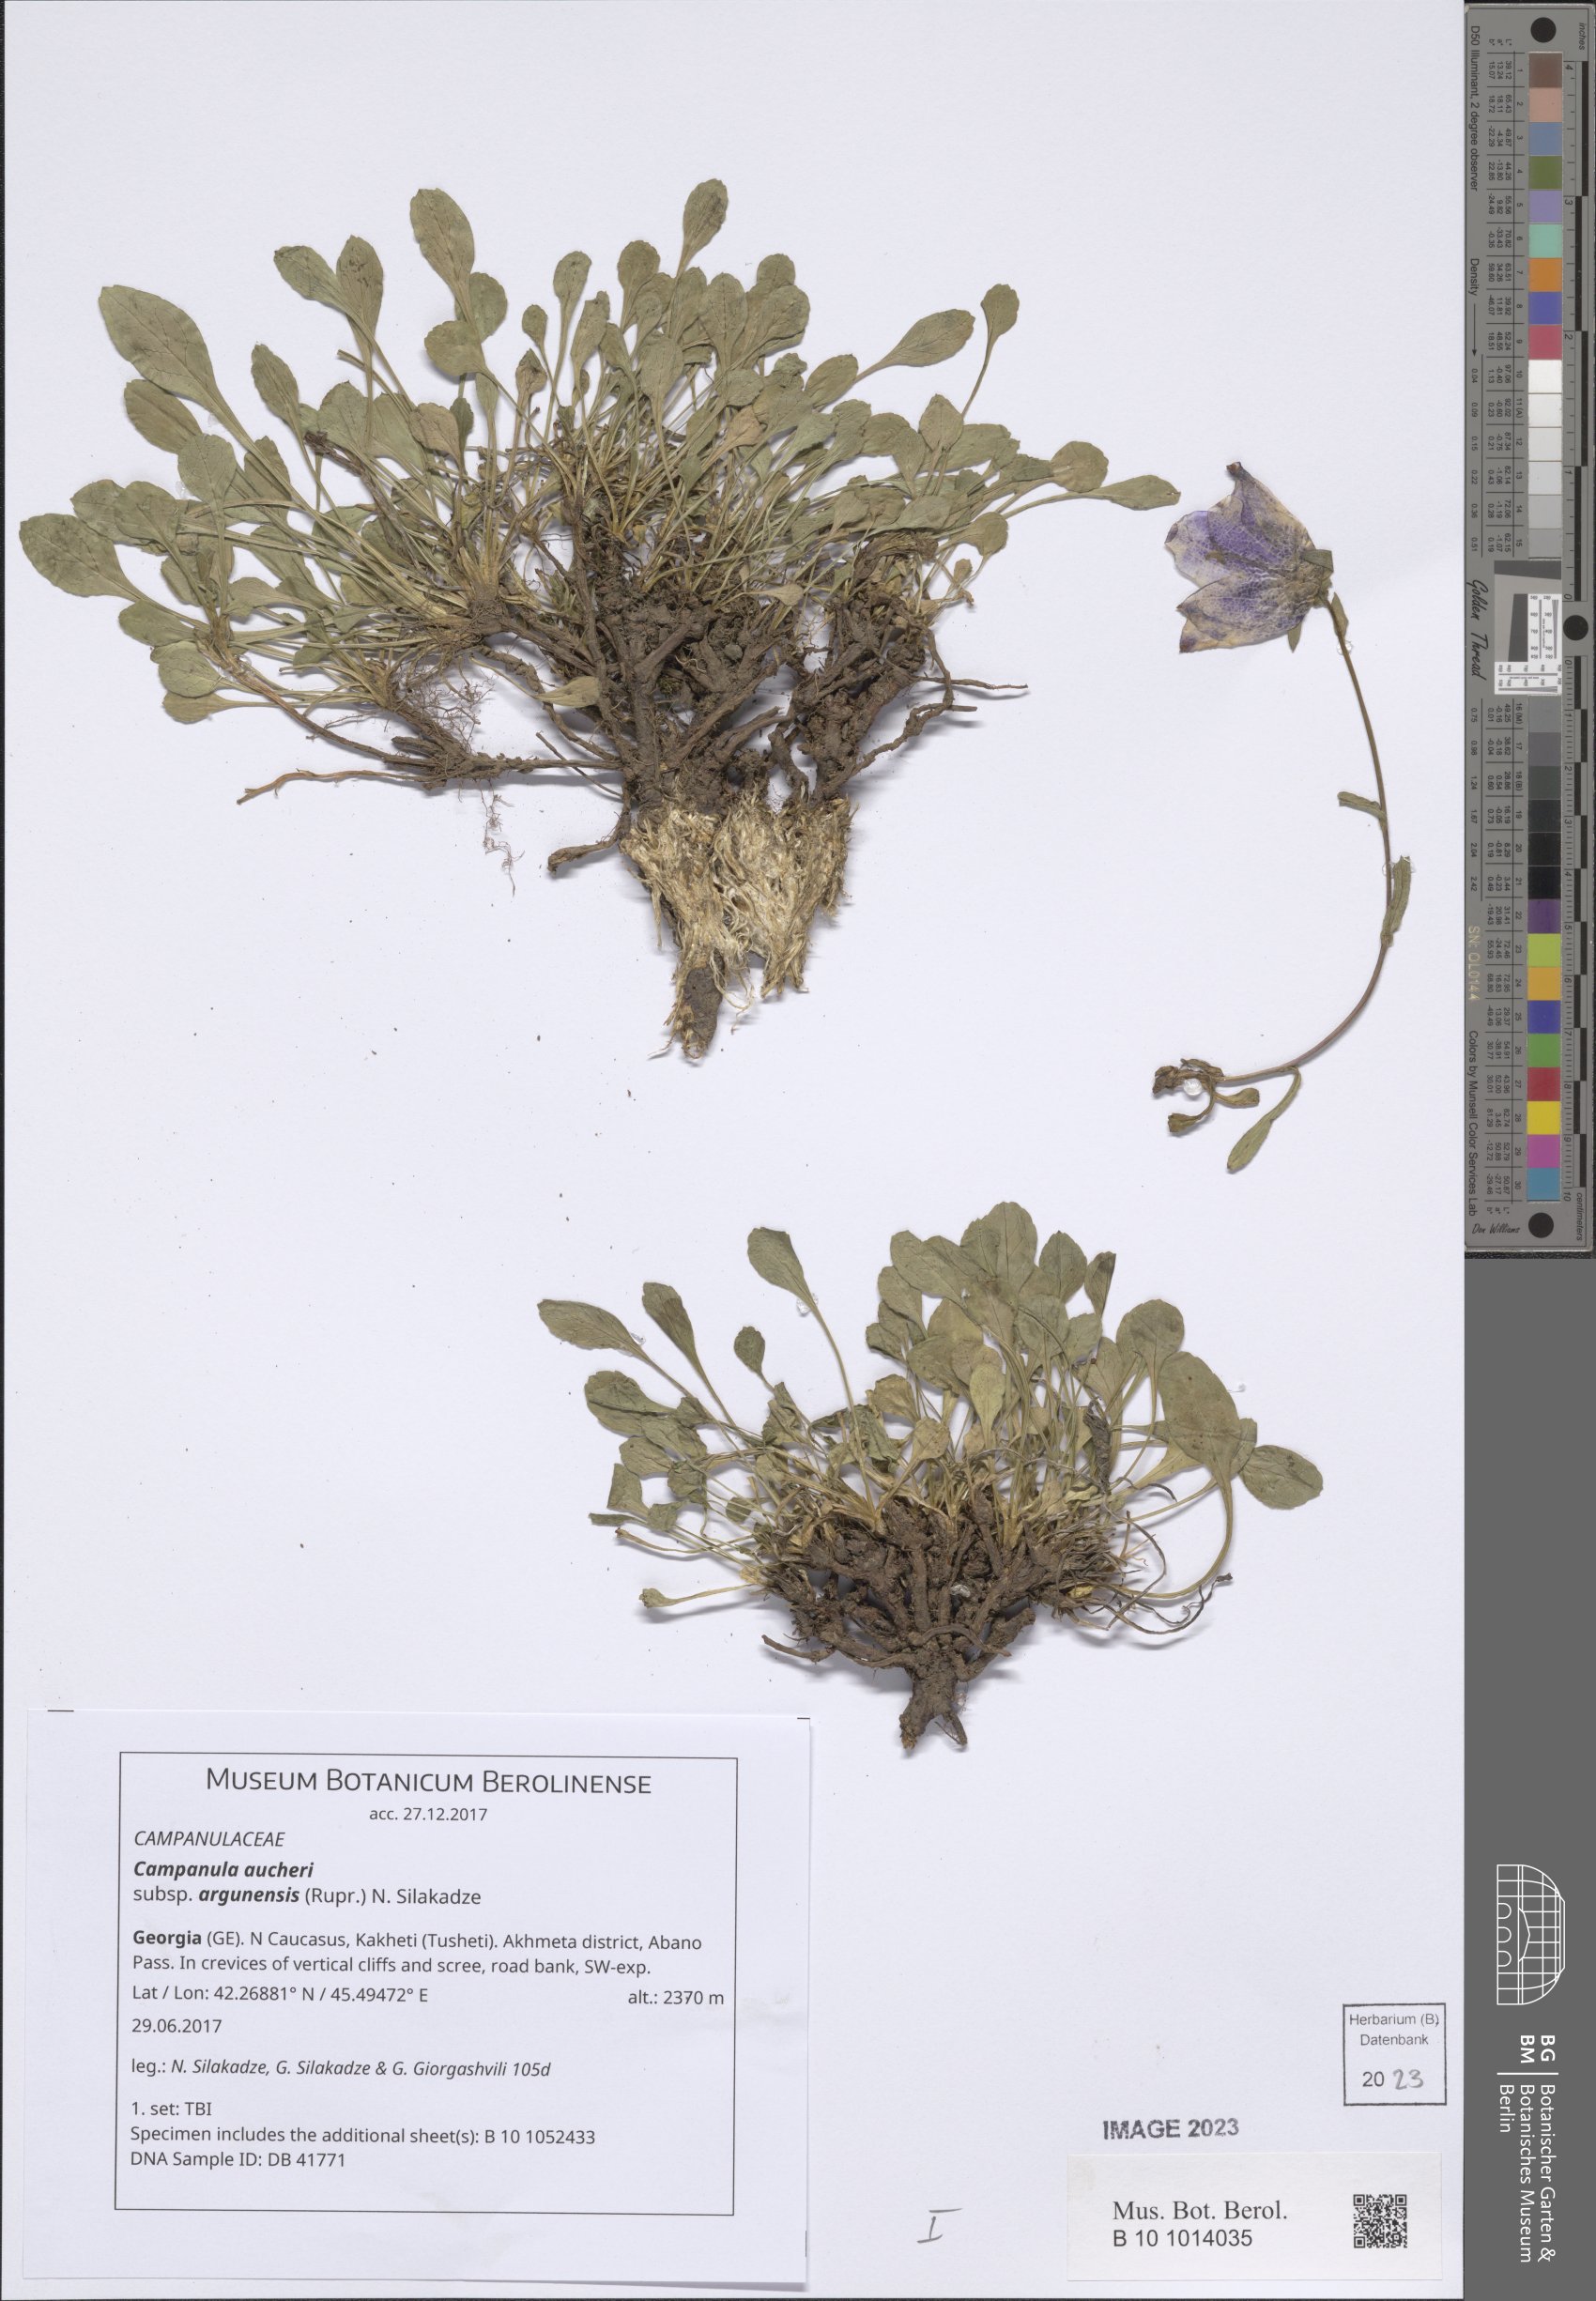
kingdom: Plantae
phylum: Tracheophyta
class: Magnoliopsida
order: Asterales
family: Campanulaceae
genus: Campanula
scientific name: Campanula saxifraga
